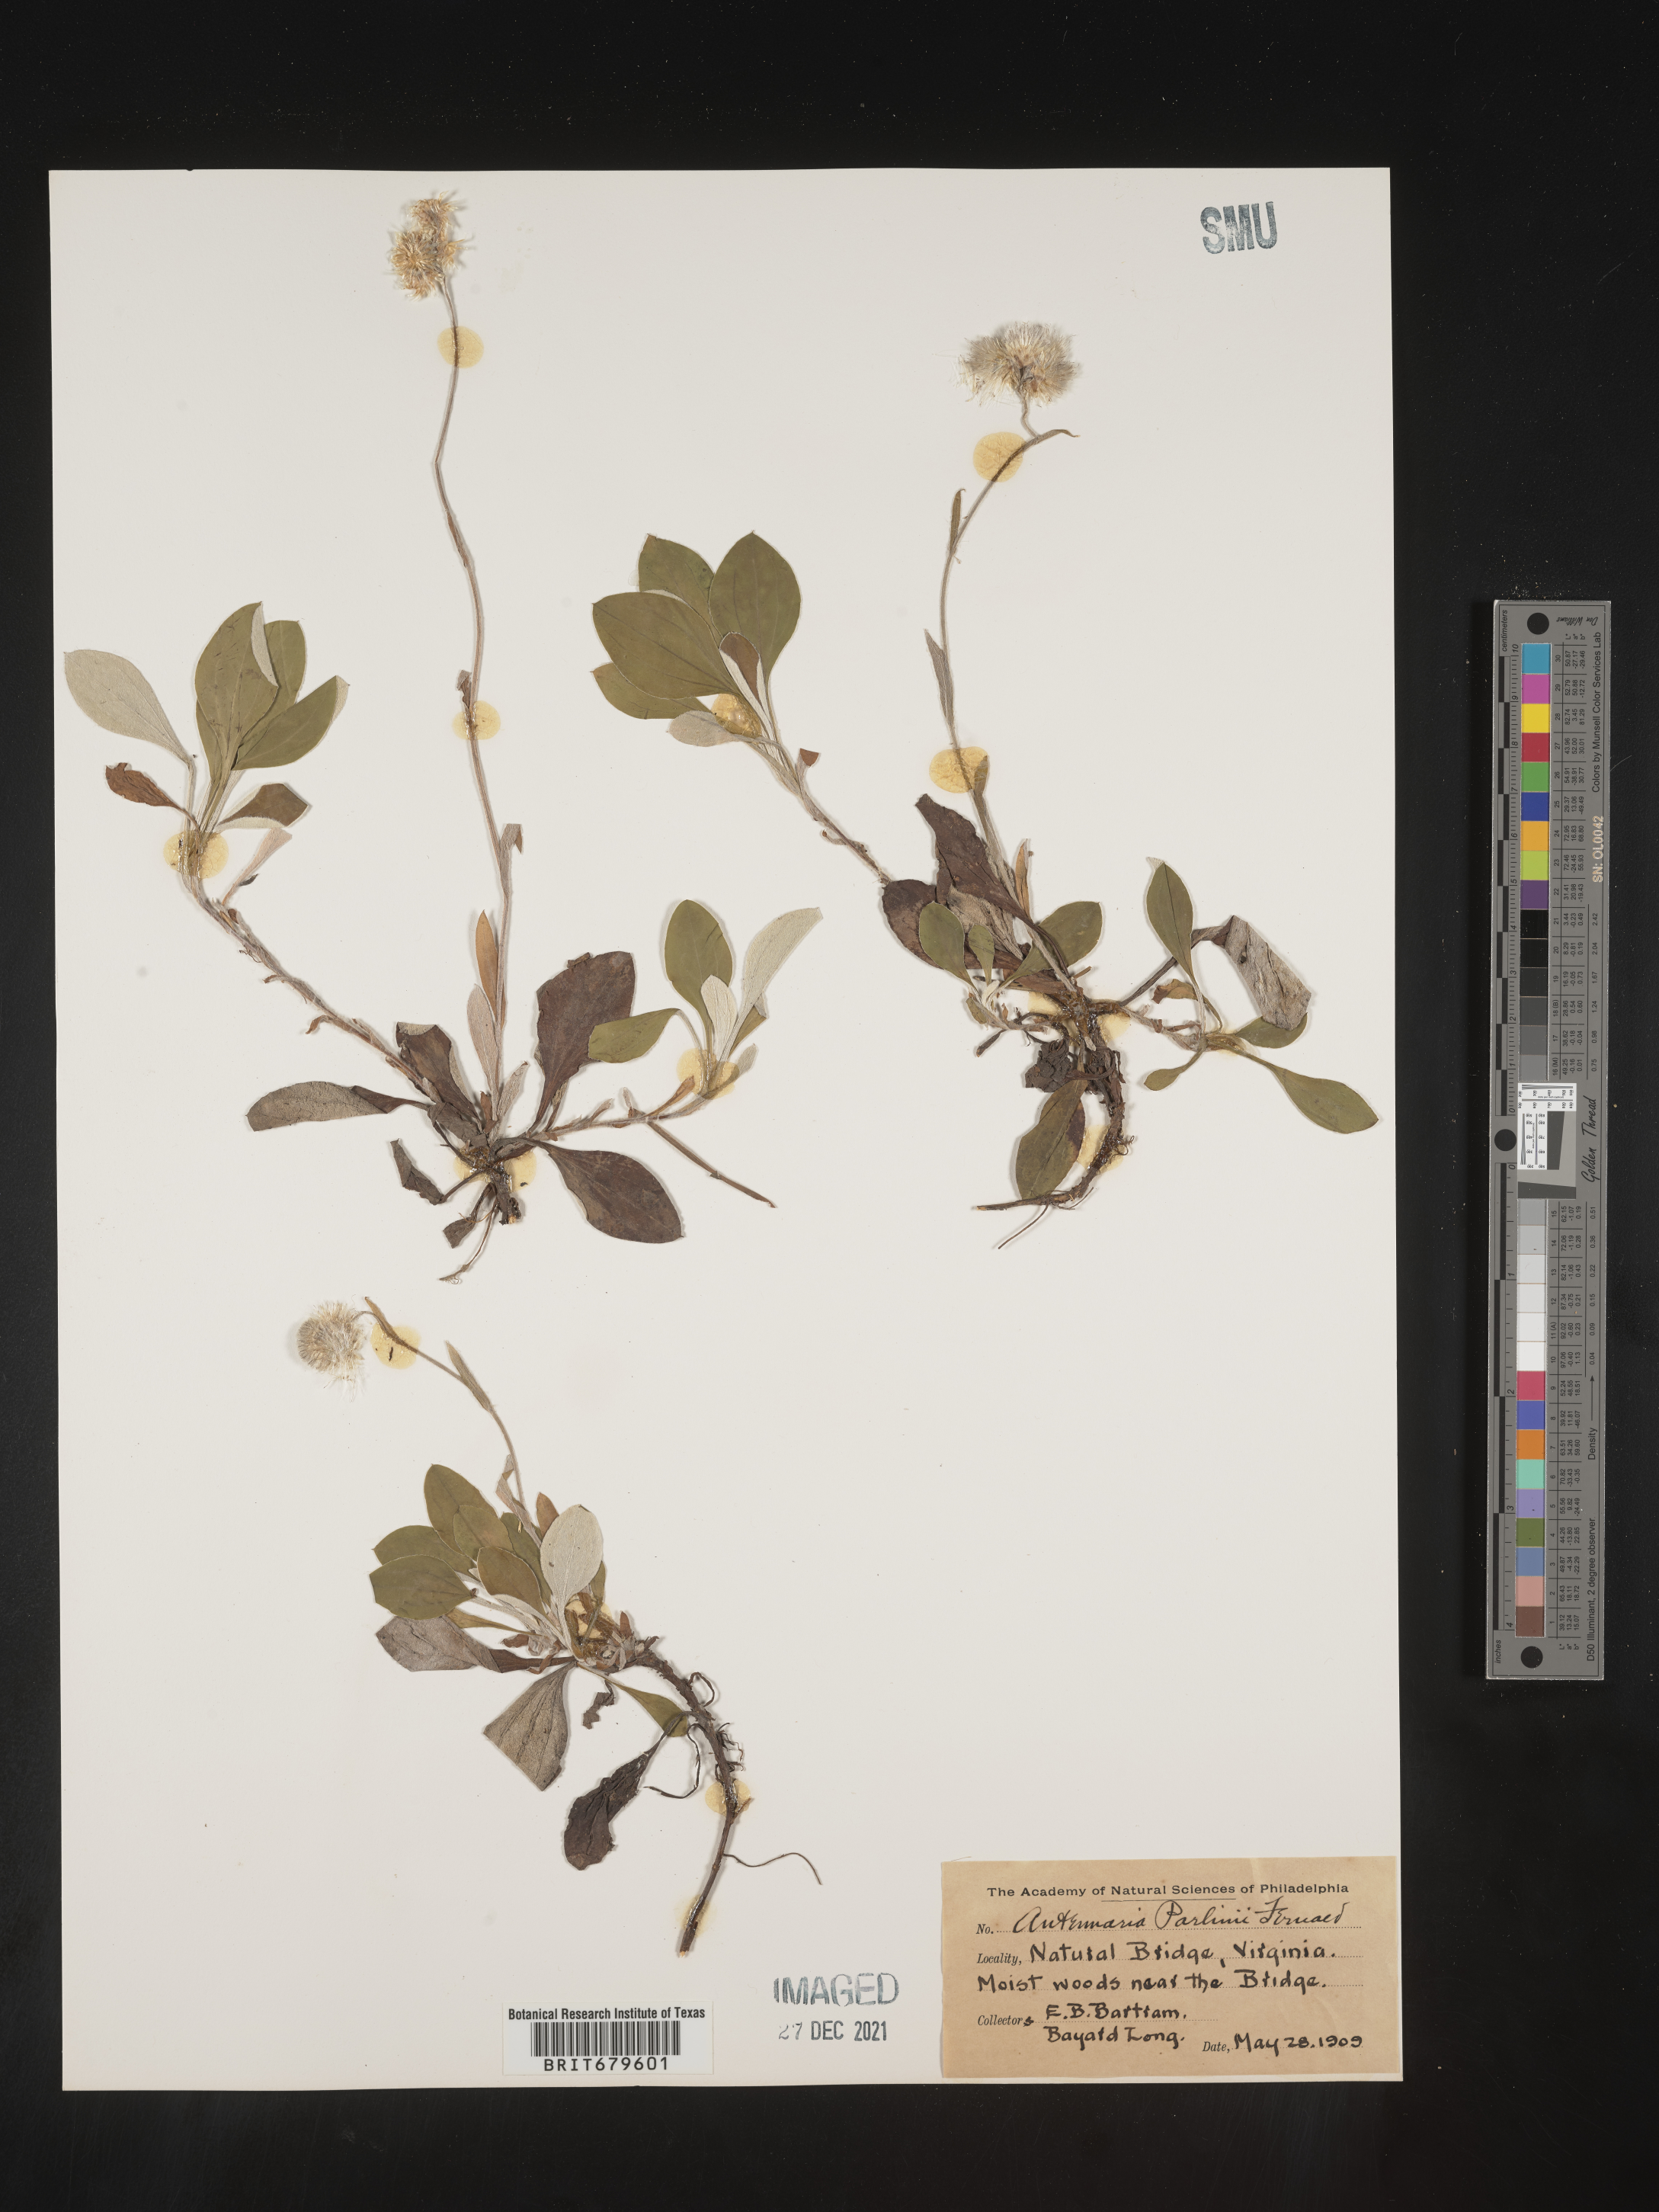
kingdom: Plantae
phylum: Tracheophyta
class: Magnoliopsida
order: Asterales
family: Asteraceae
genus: Antennaria
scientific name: Antennaria parlinii
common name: Parlin's pussytoes
